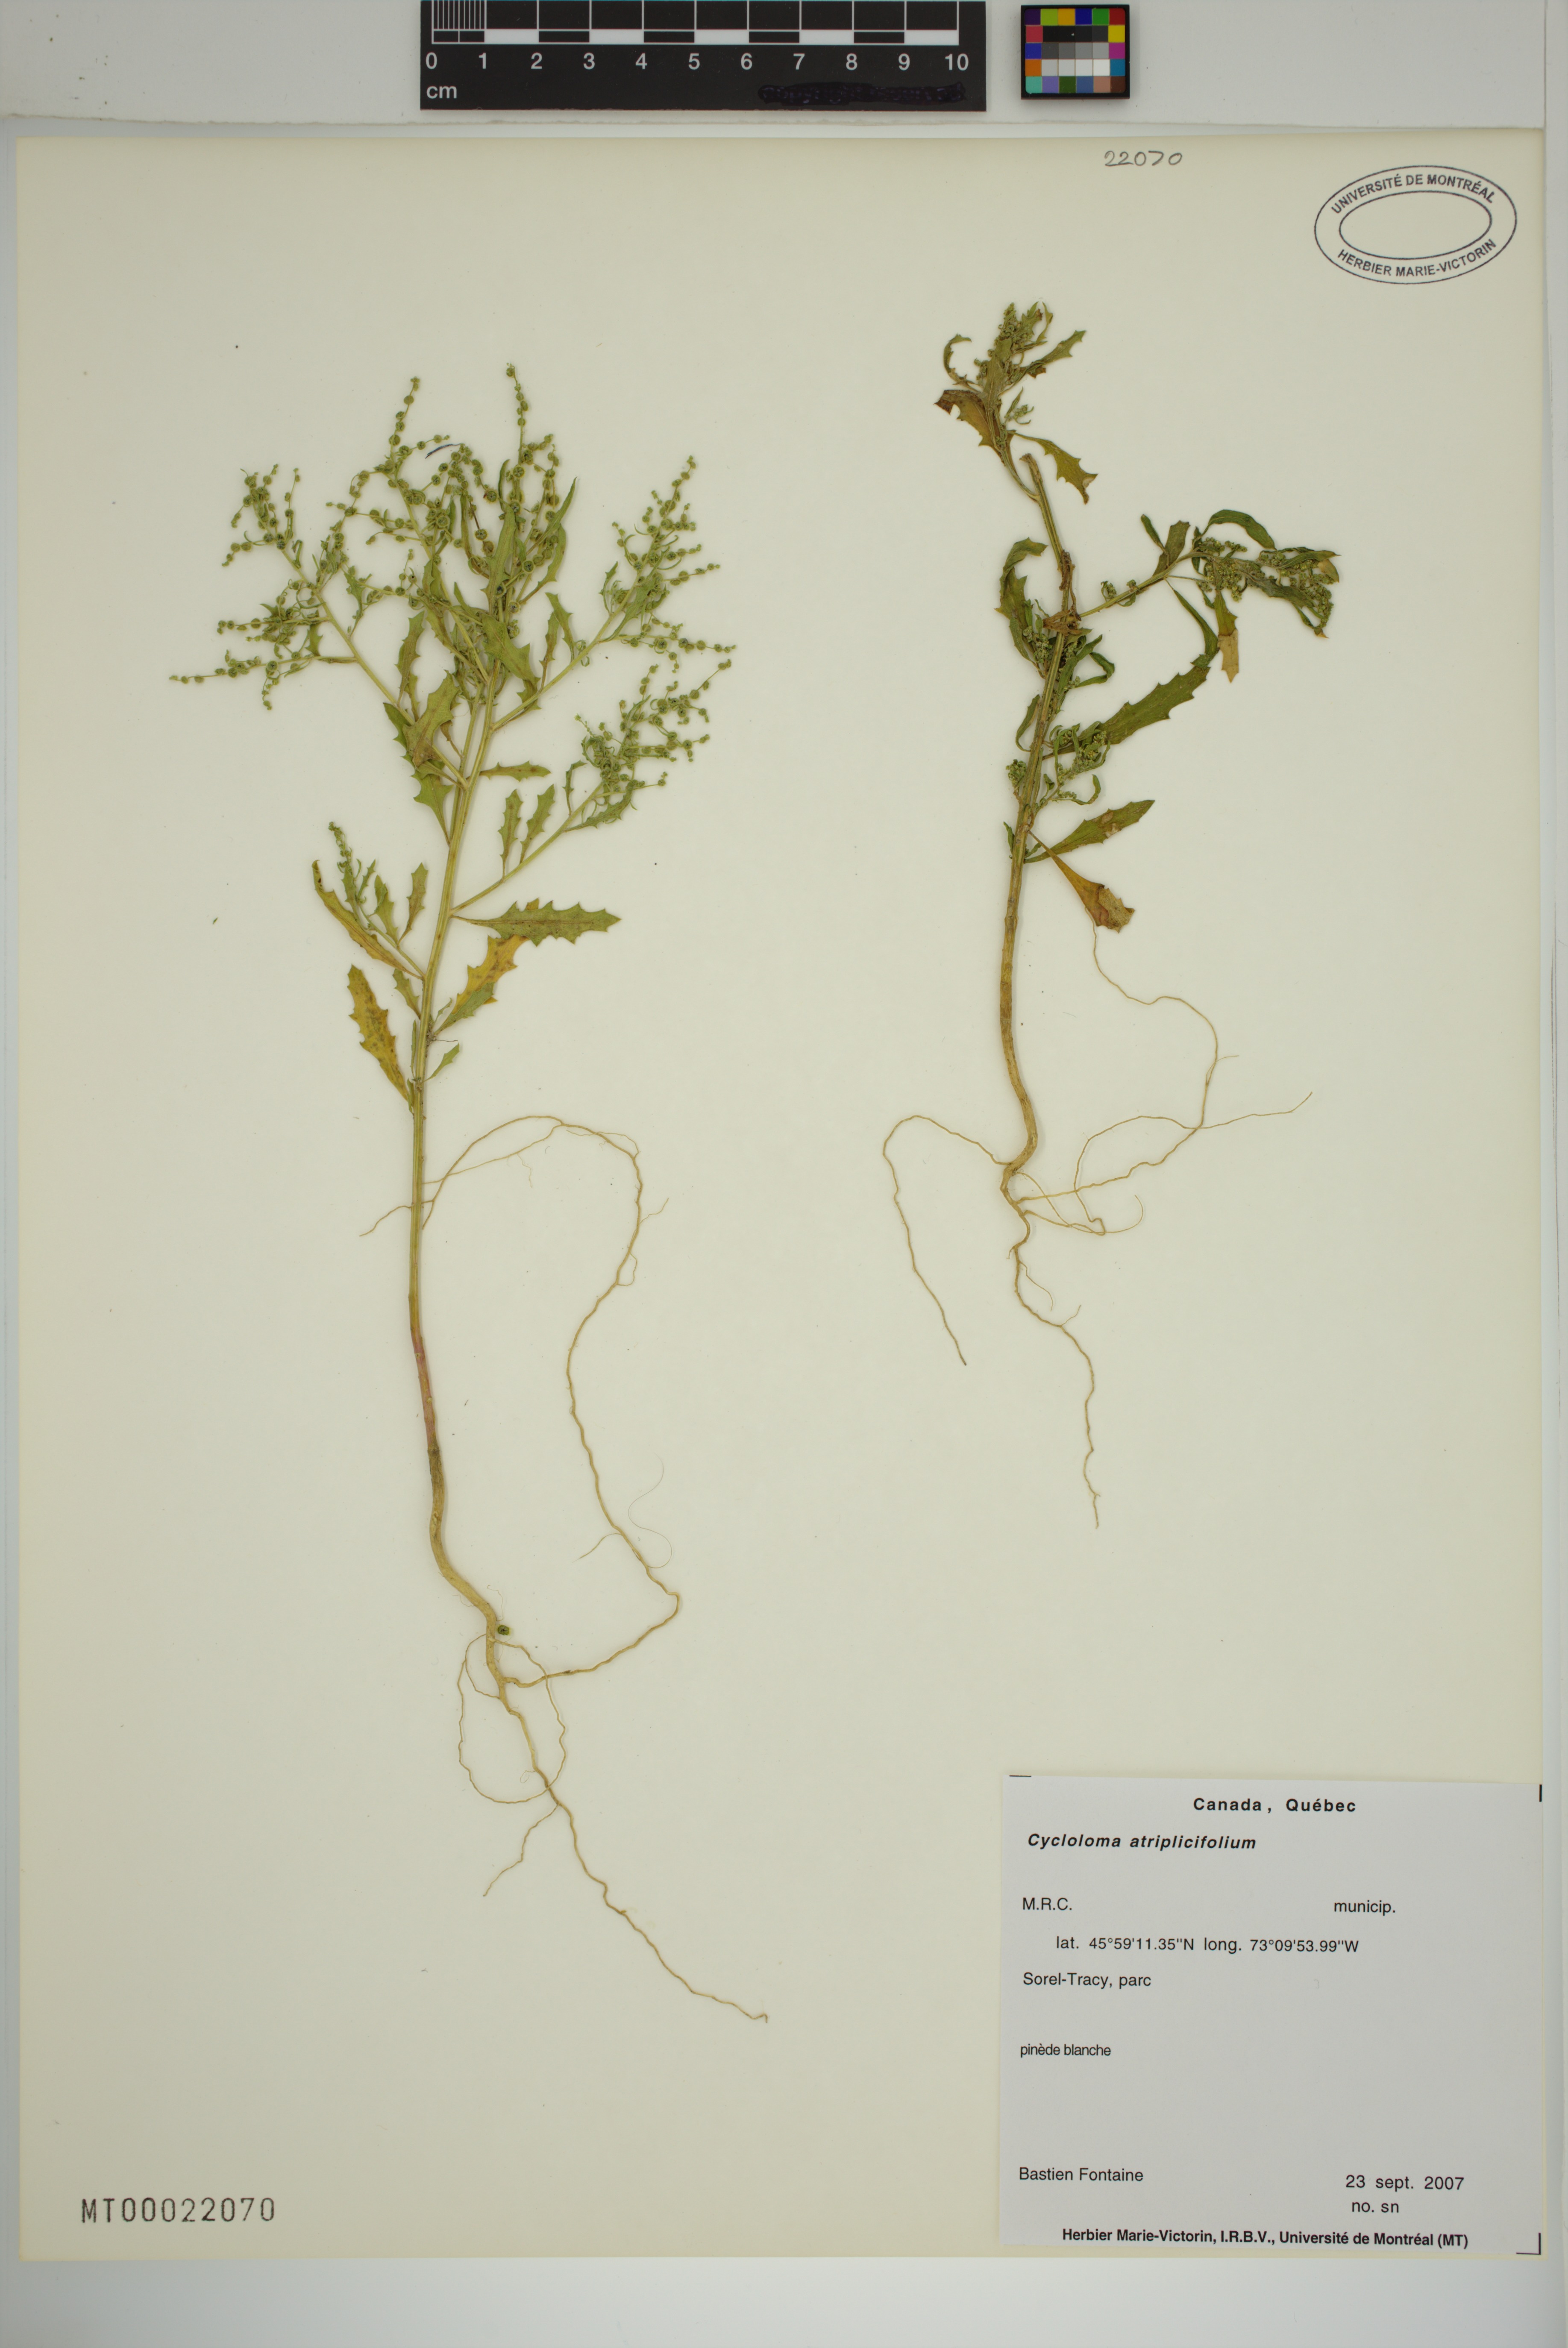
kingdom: Plantae
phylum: Tracheophyta
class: Magnoliopsida
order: Caryophyllales
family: Amaranthaceae
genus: Dysphania
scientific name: Dysphania atriplicifolia
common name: Plains tumbleweed
